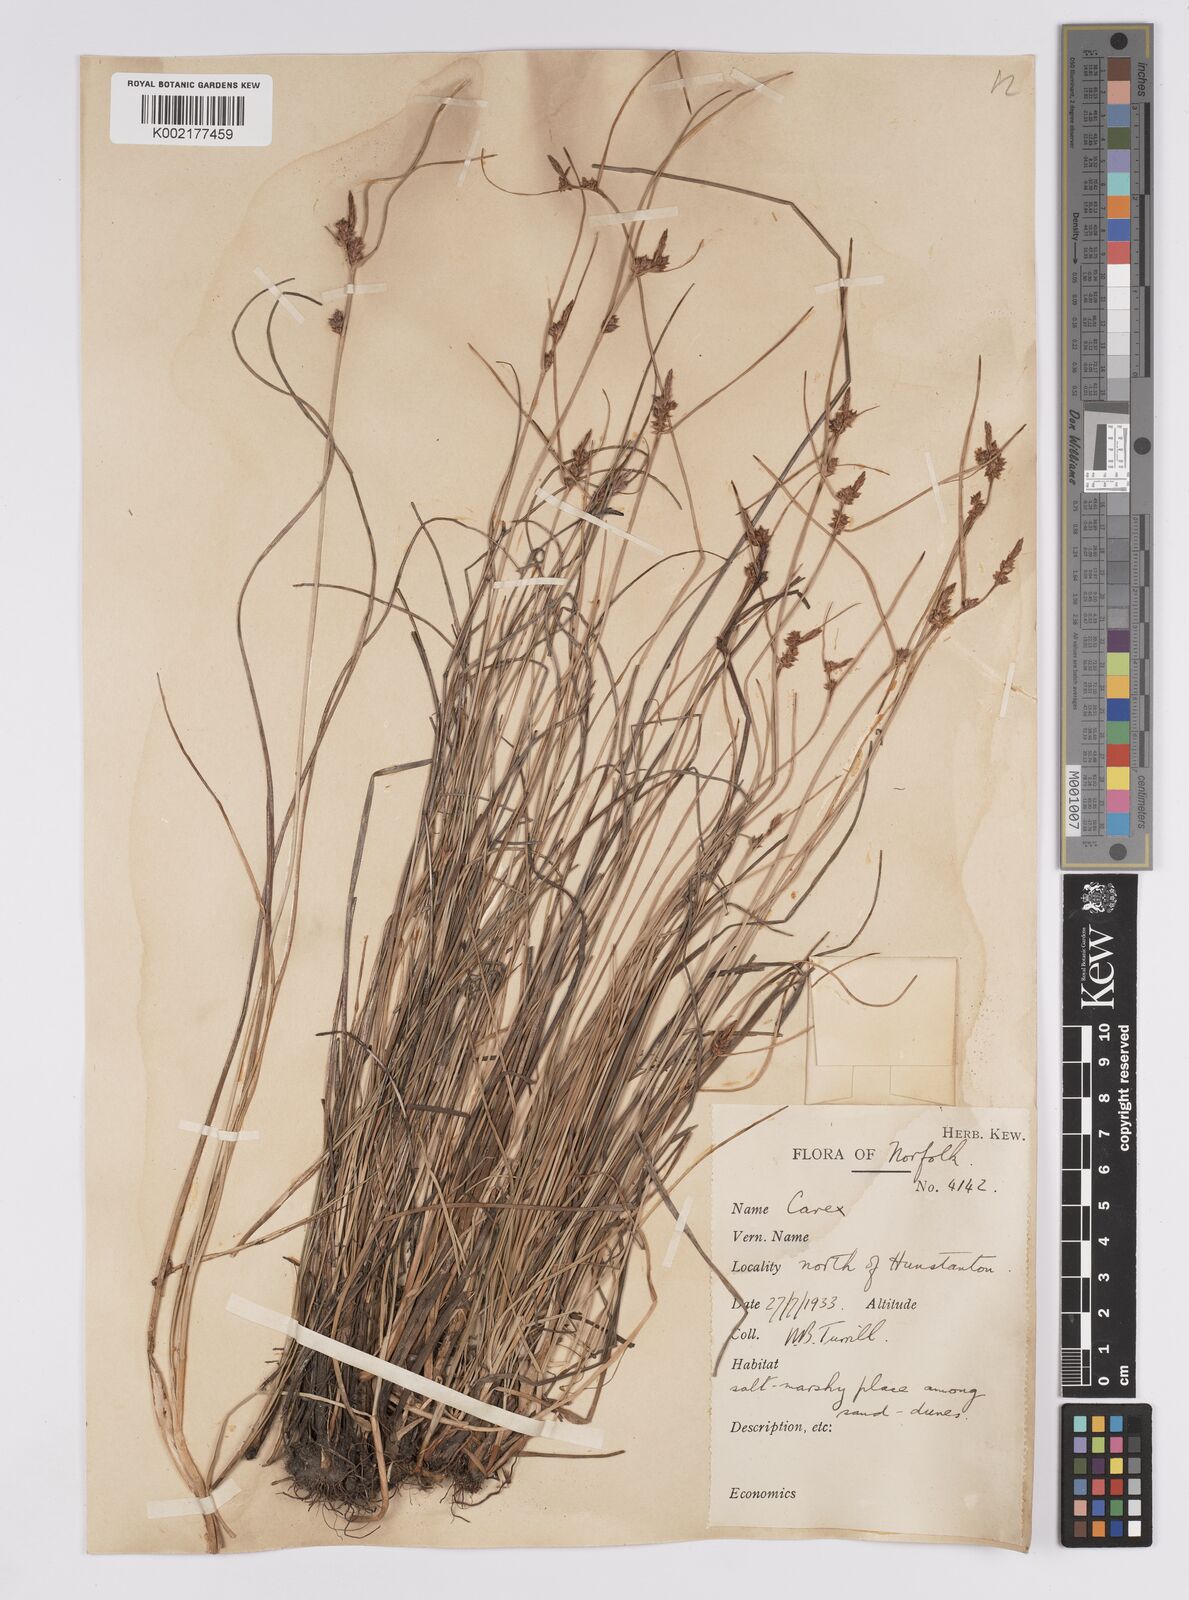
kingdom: Plantae
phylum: Tracheophyta
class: Liliopsida
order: Poales
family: Cyperaceae
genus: Carex
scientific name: Carex extensa
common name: Long-bracted sedge
